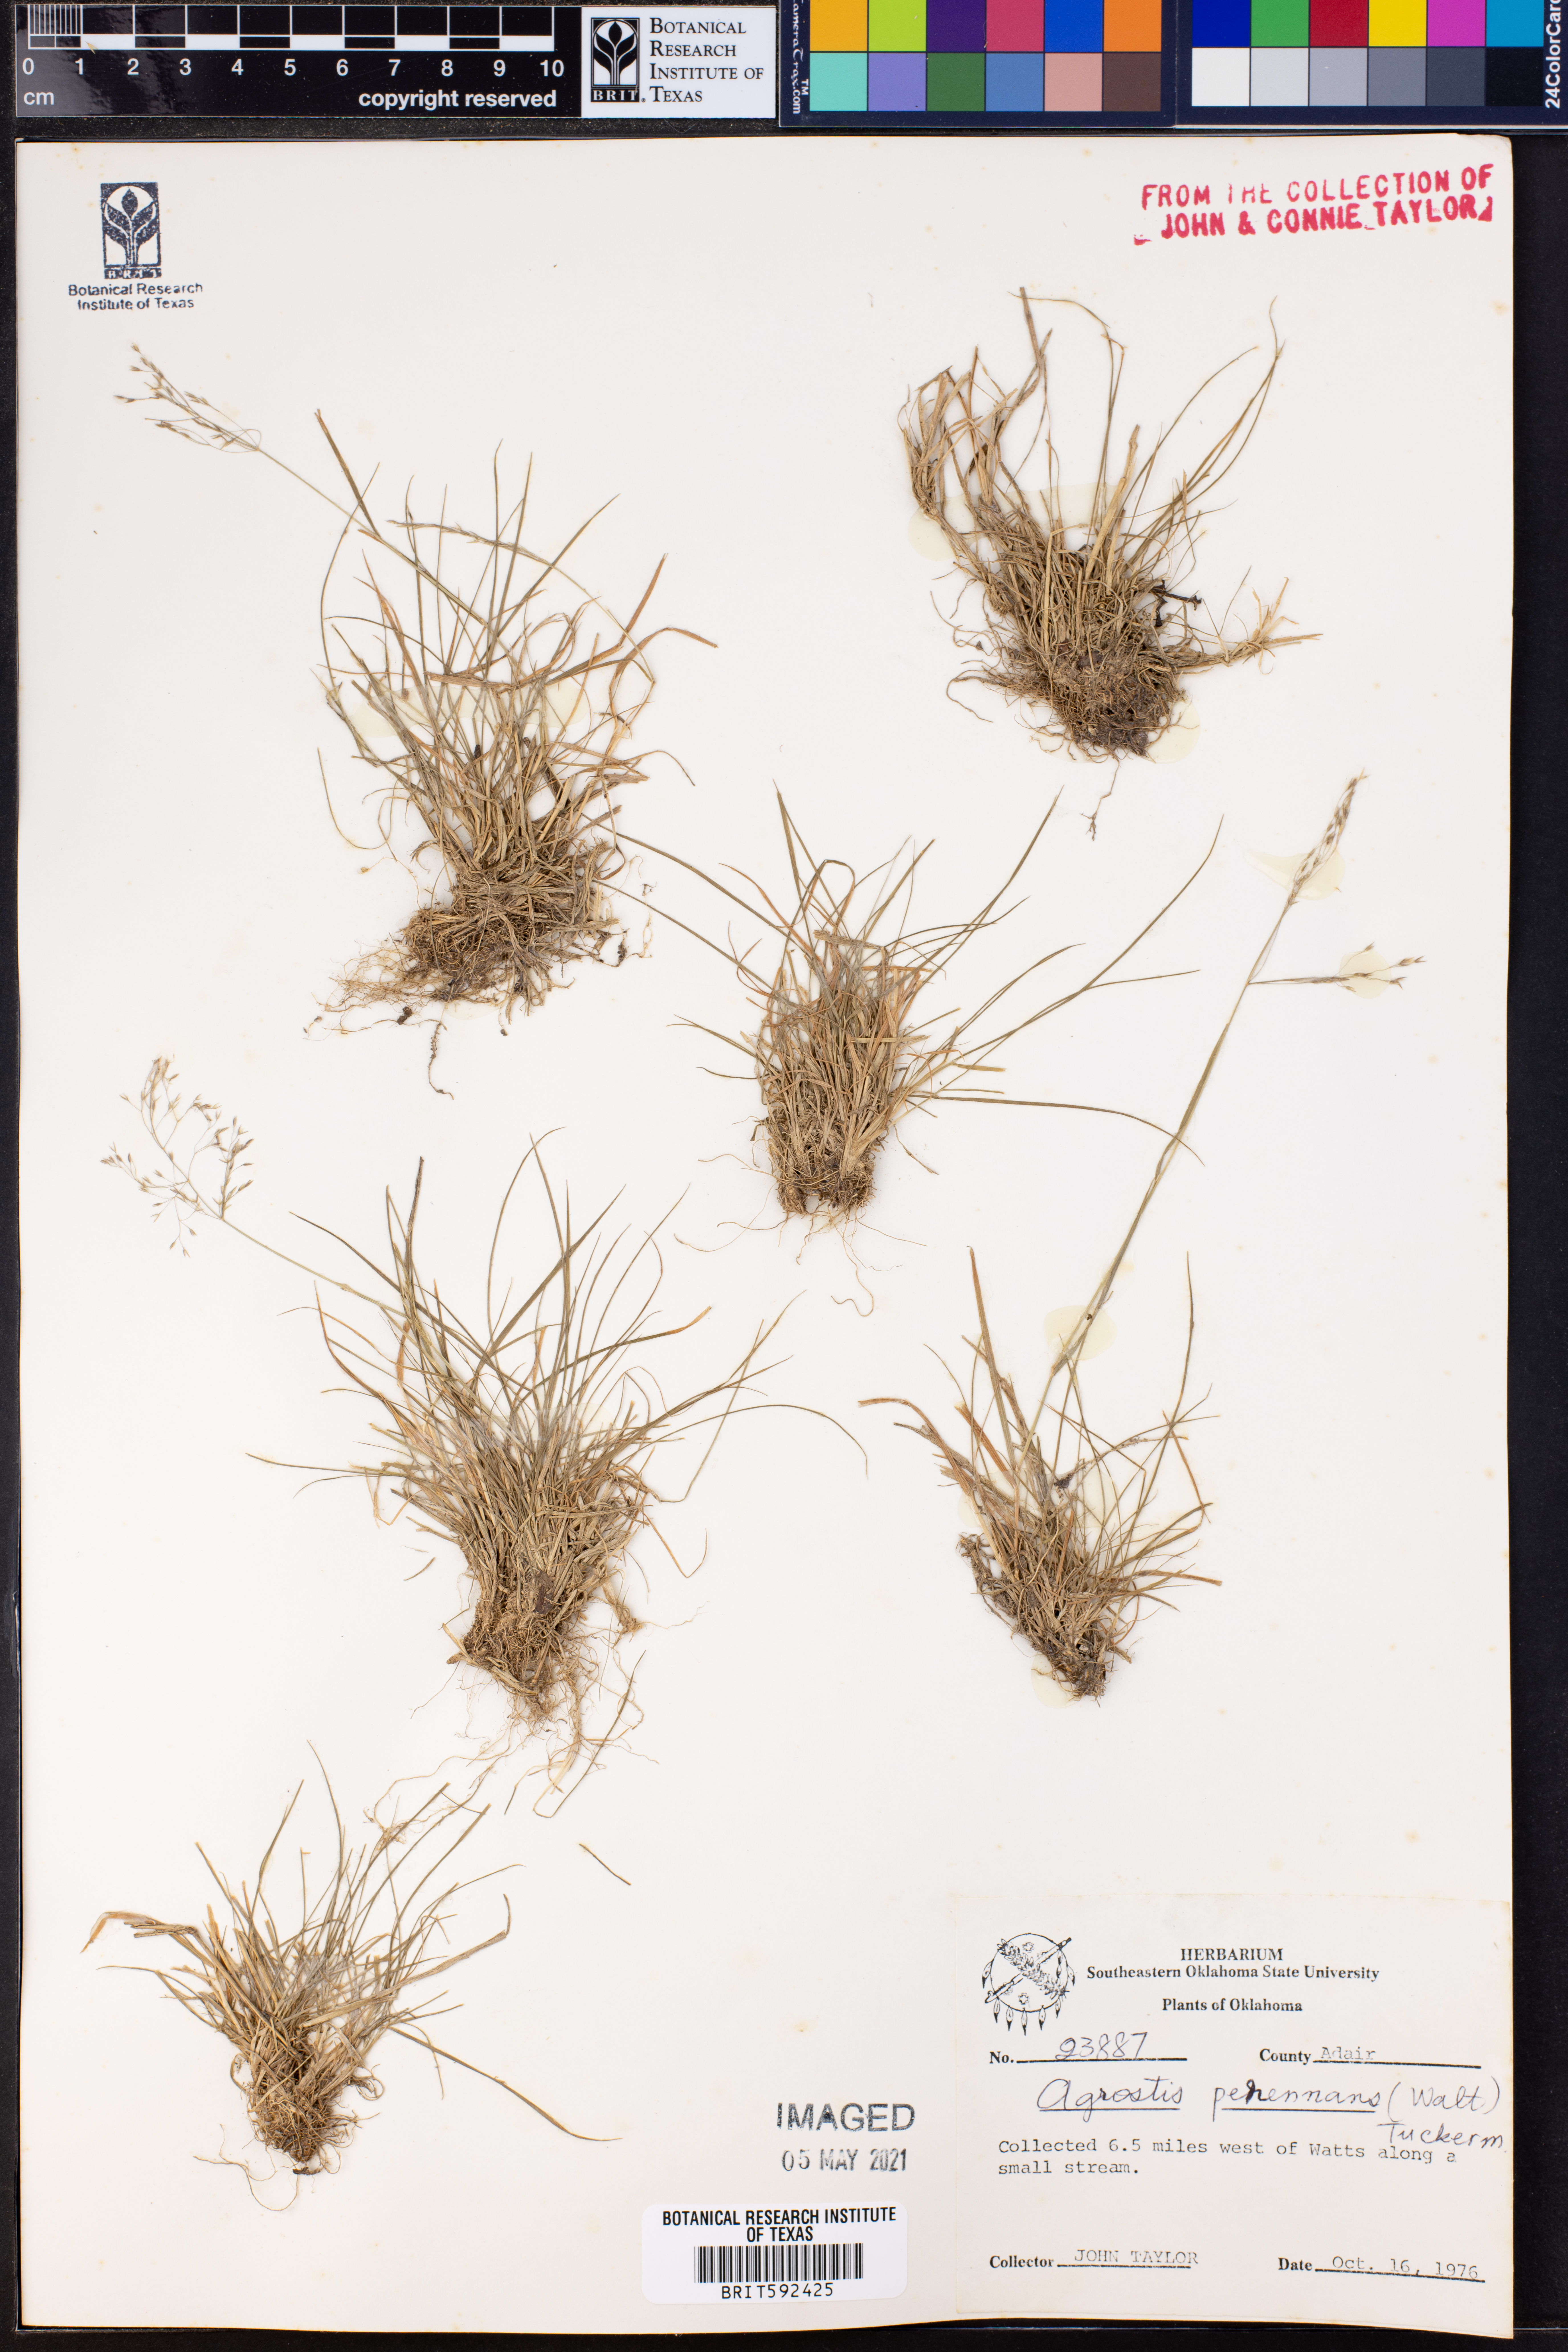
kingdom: Plantae
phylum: Tracheophyta
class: Liliopsida
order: Poales
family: Poaceae
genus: Agrostis
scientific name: Agrostis perennans
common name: Autumn bent
